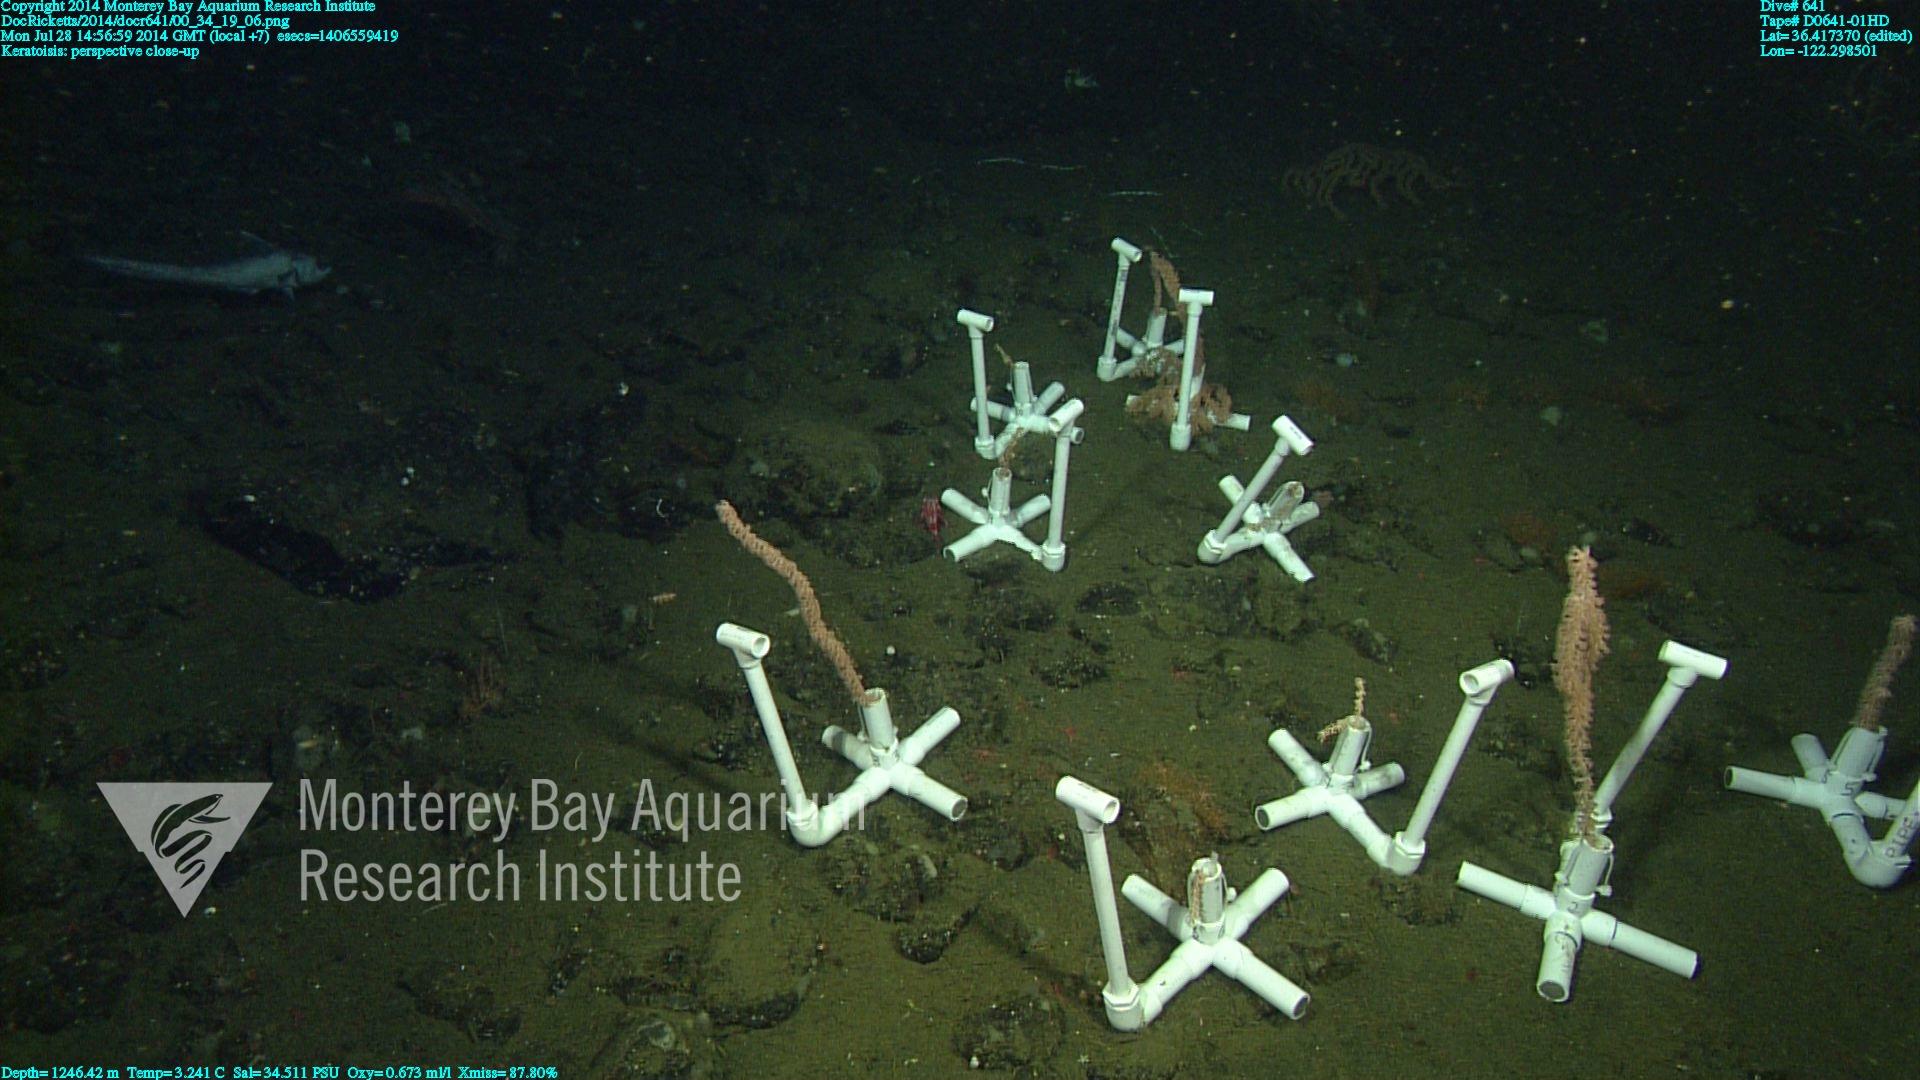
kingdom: Animalia
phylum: Cnidaria
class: Anthozoa
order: Scleralcyonacea
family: Keratoisididae
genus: Keratoisis
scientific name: Keratoisis
